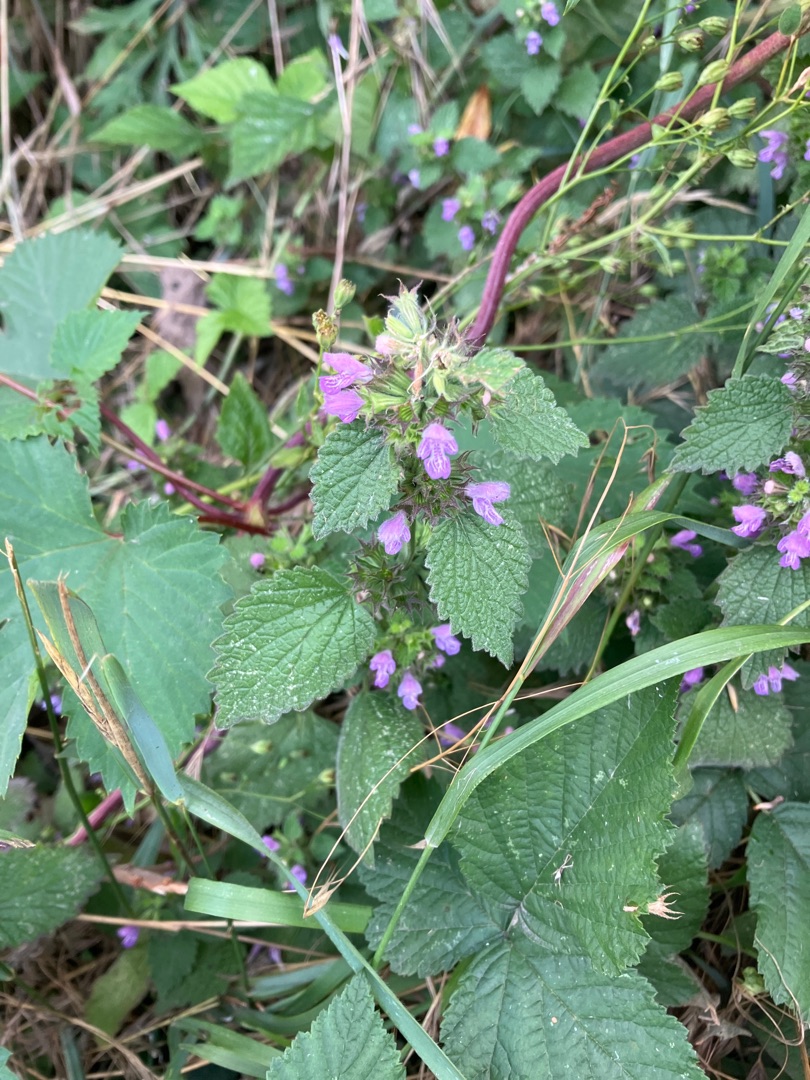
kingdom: Plantae
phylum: Tracheophyta
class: Magnoliopsida
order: Lamiales
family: Lamiaceae
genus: Ballota
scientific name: Ballota nigra
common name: Tandbæger
